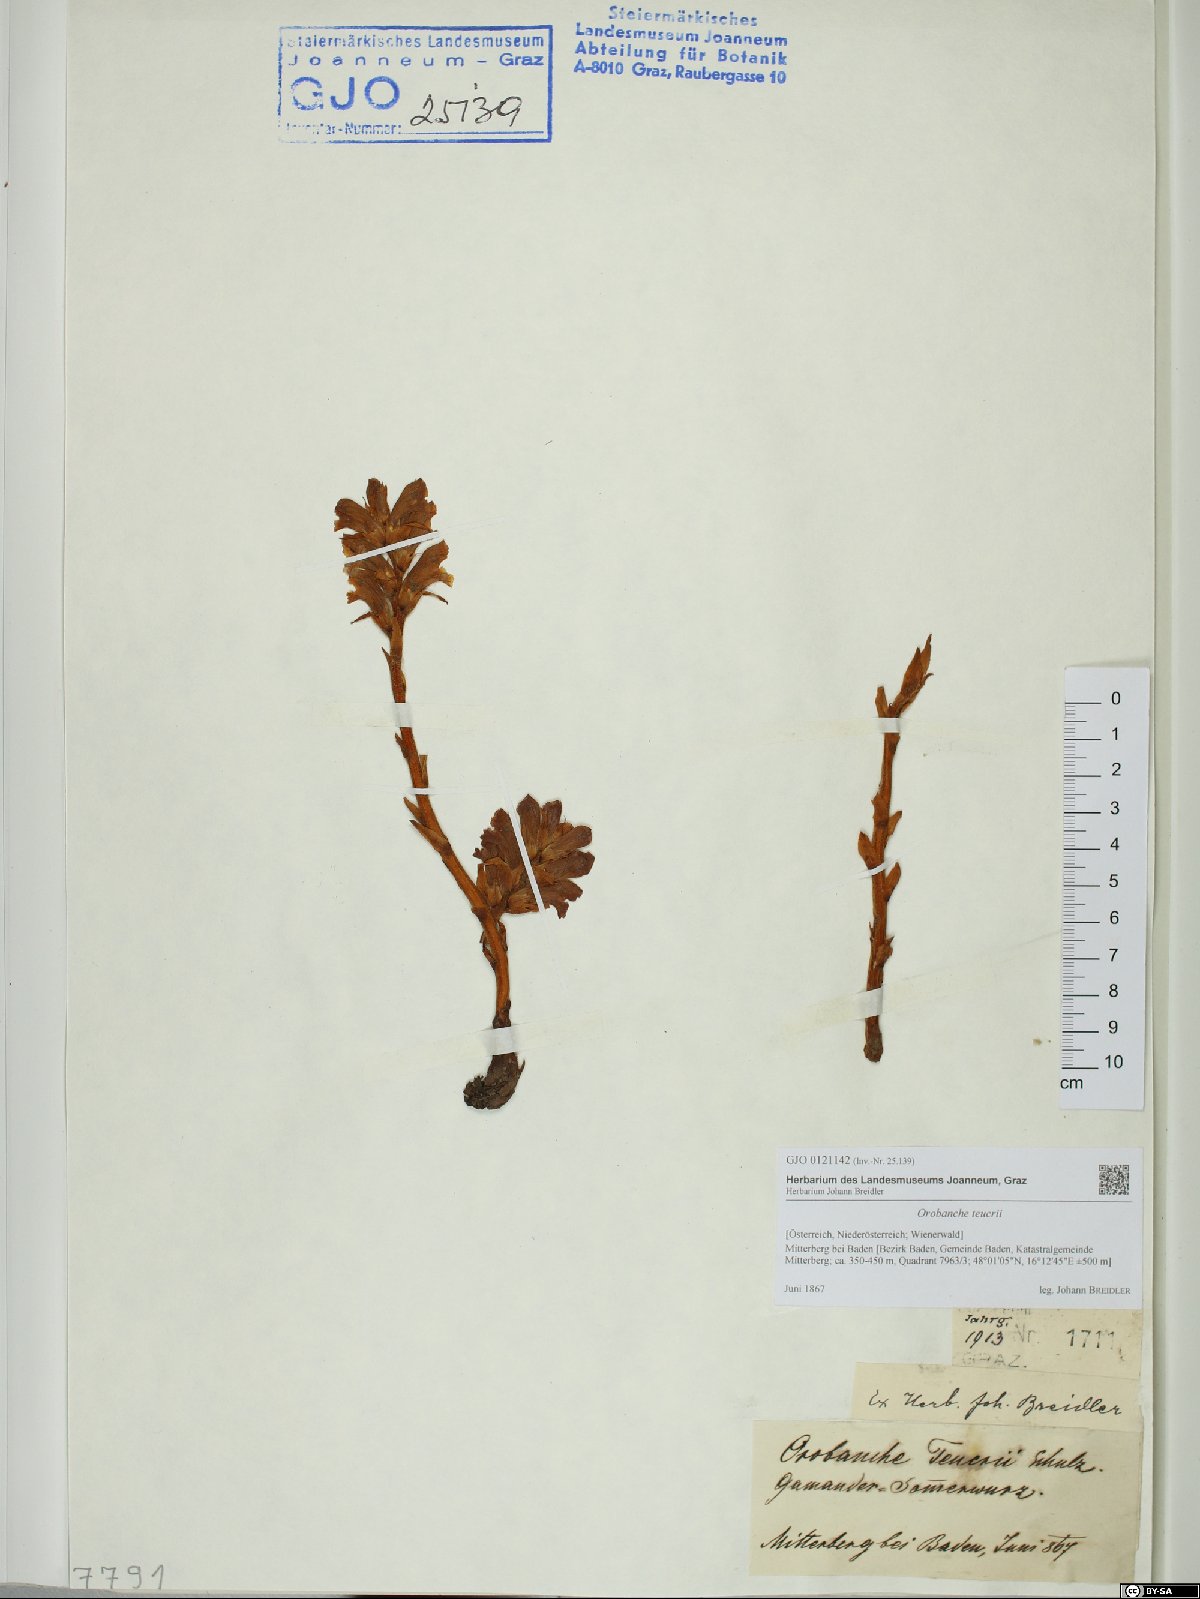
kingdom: Plantae
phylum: Tracheophyta
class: Magnoliopsida
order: Lamiales
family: Orobanchaceae
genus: Orobanche
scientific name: Orobanche teucrii
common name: Germander broomrape
